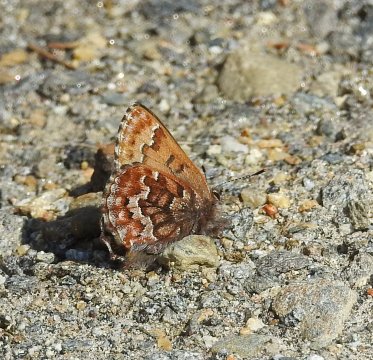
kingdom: Animalia
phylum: Arthropoda
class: Insecta
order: Lepidoptera
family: Lycaenidae
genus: Incisalia
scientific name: Incisalia niphon
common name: Eastern Pine Elfin
